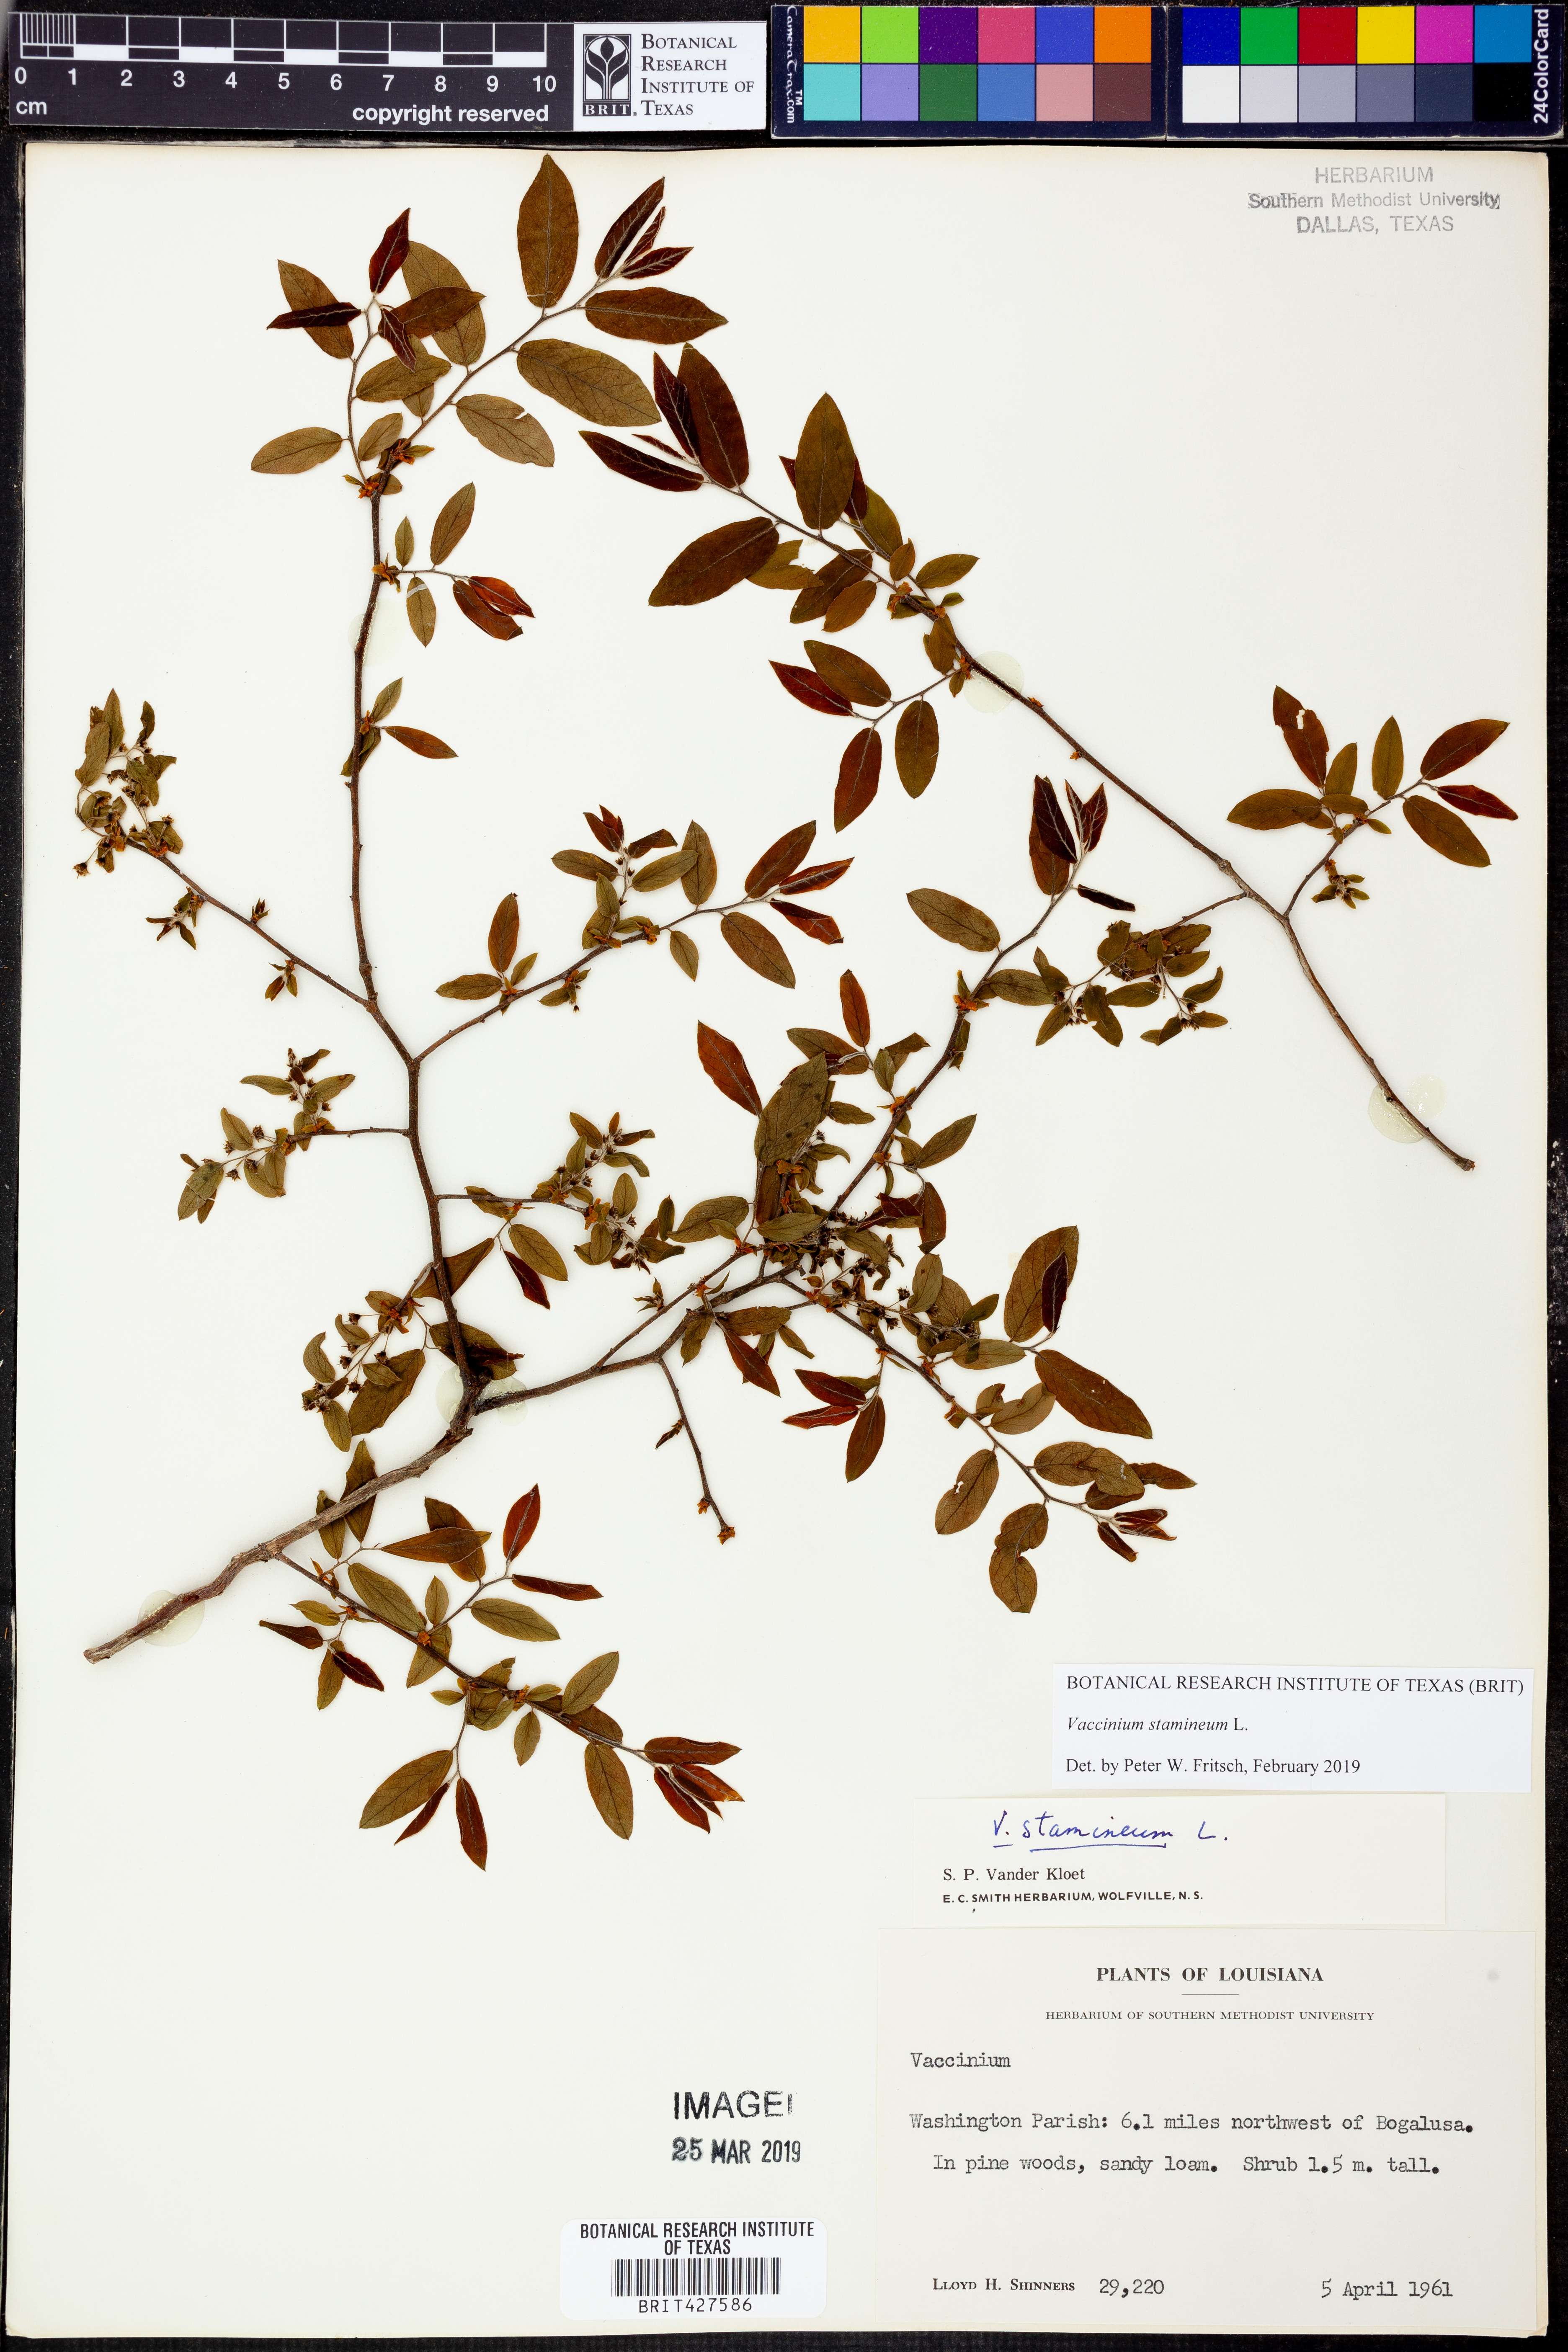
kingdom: Plantae
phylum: Tracheophyta
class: Magnoliopsida
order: Ericales
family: Ericaceae
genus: Vaccinium
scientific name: Vaccinium stamineum
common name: Deerberry
